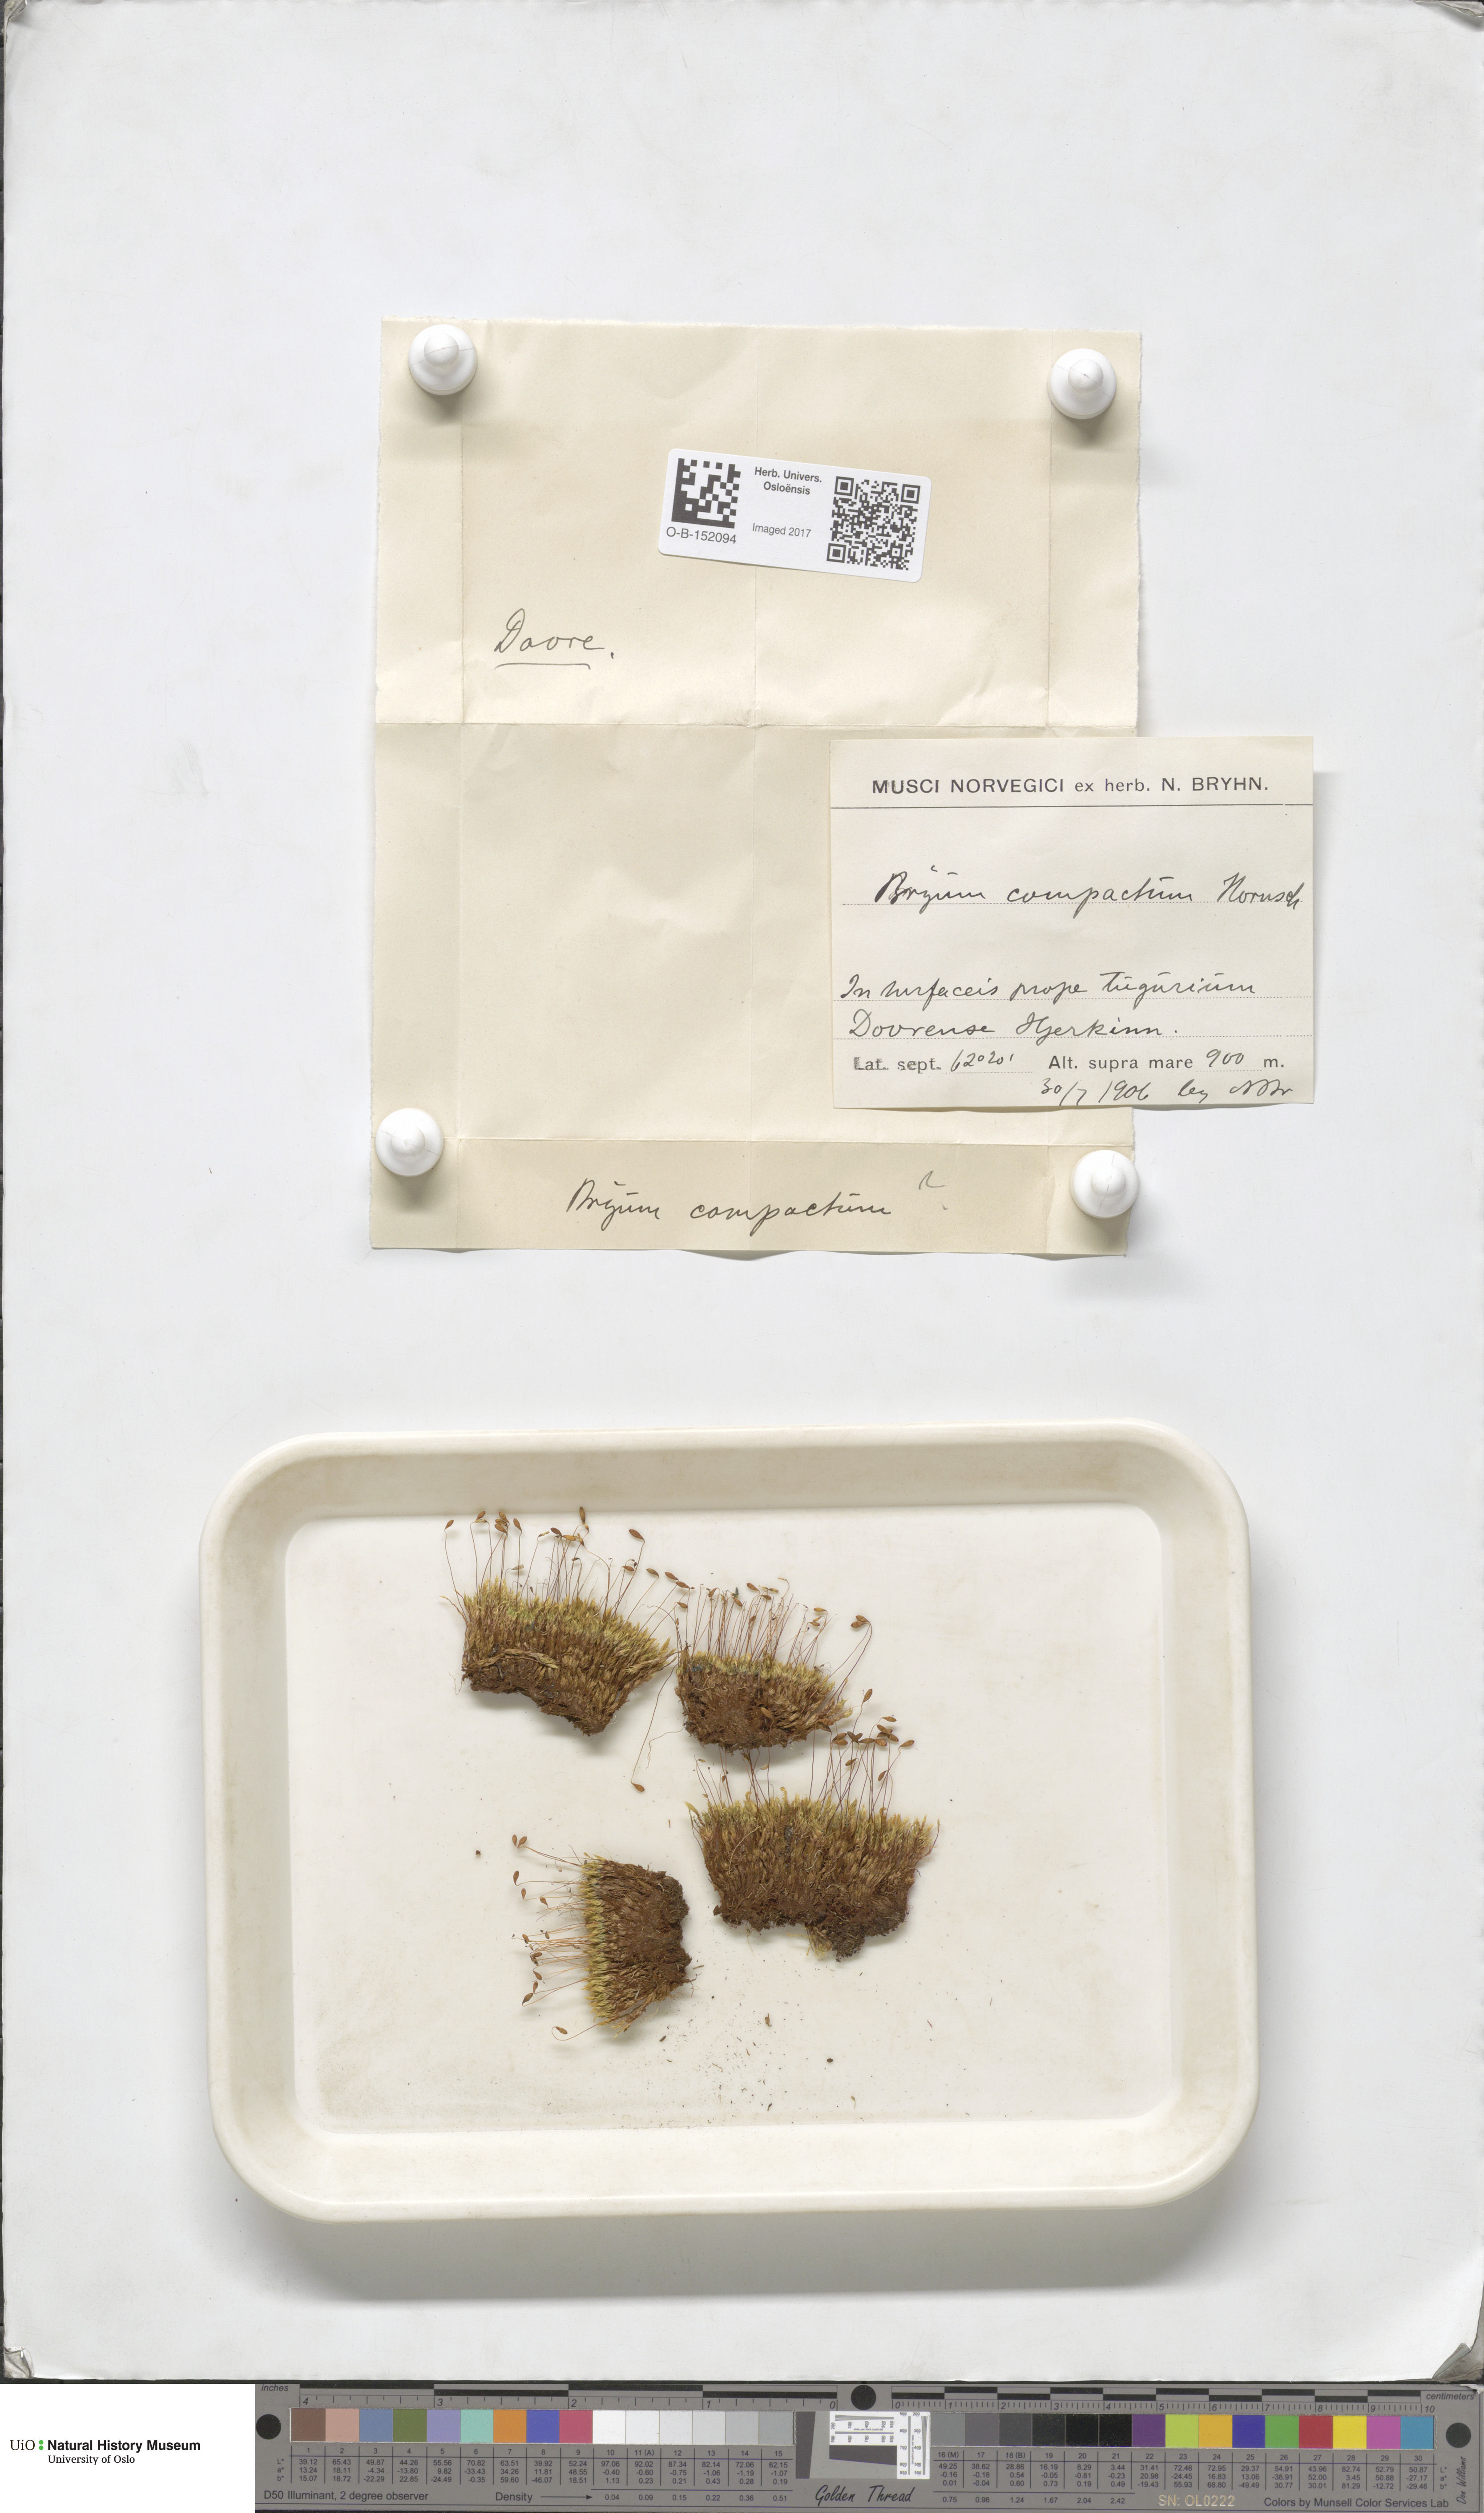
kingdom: Plantae
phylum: Bryophyta
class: Bryopsida
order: Bryales
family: Bryaceae
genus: Ptychostomum
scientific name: Ptychostomum compactum
